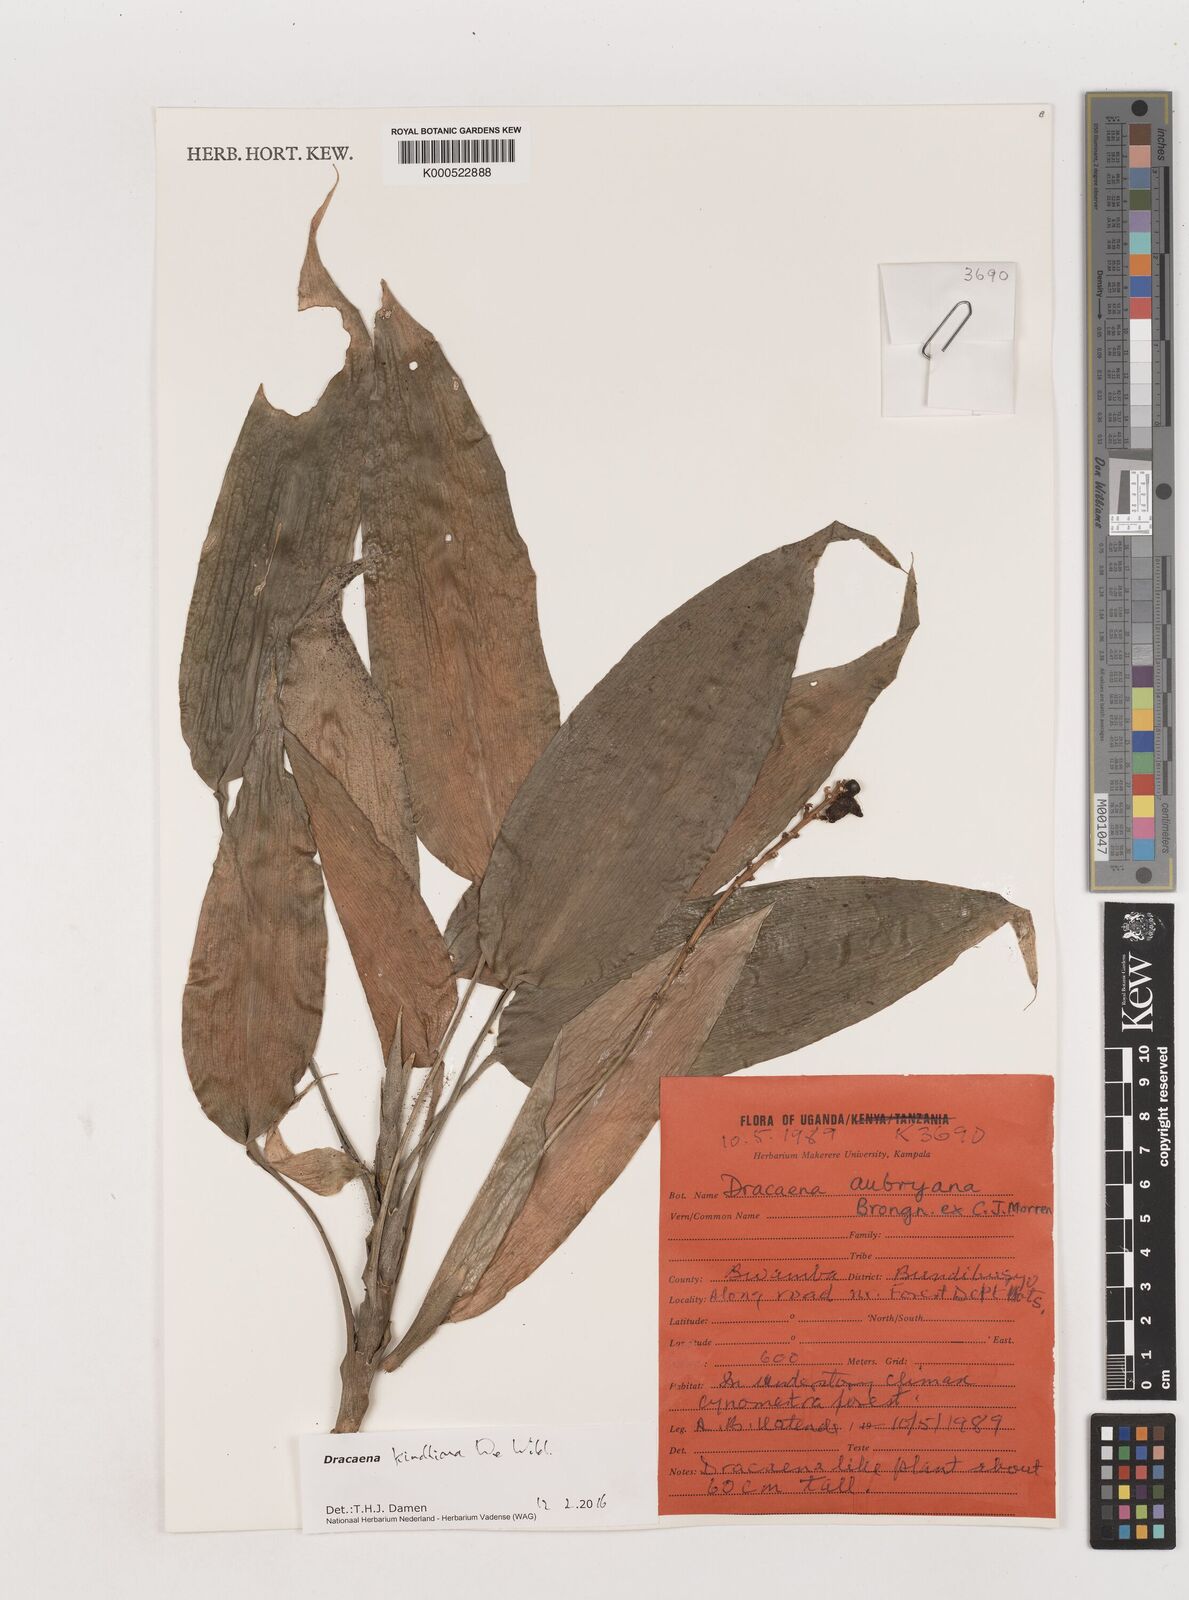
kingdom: Plantae
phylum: Tracheophyta
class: Liliopsida
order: Asparagales
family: Asparagaceae
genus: Dracaena
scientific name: Dracaena kindtiana
